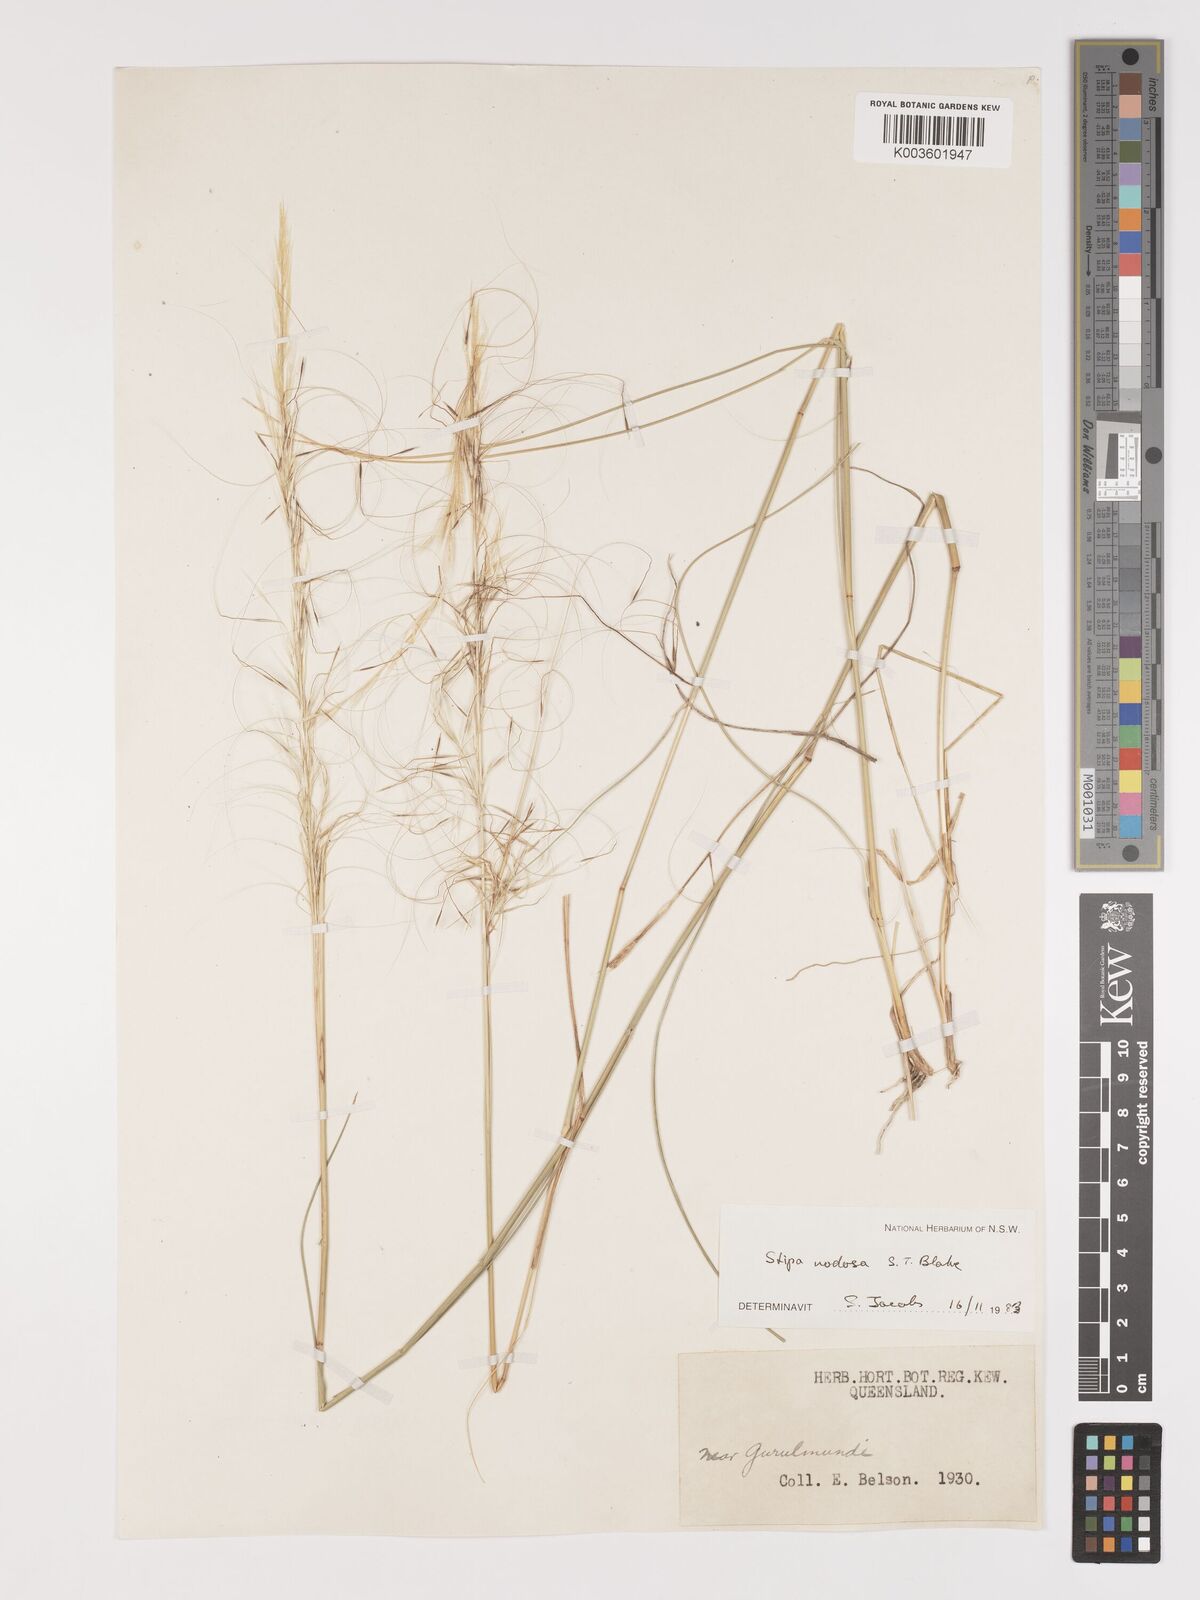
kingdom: Plantae
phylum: Tracheophyta
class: Liliopsida
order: Poales
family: Poaceae
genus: Austrostipa
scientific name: Austrostipa nodosa
